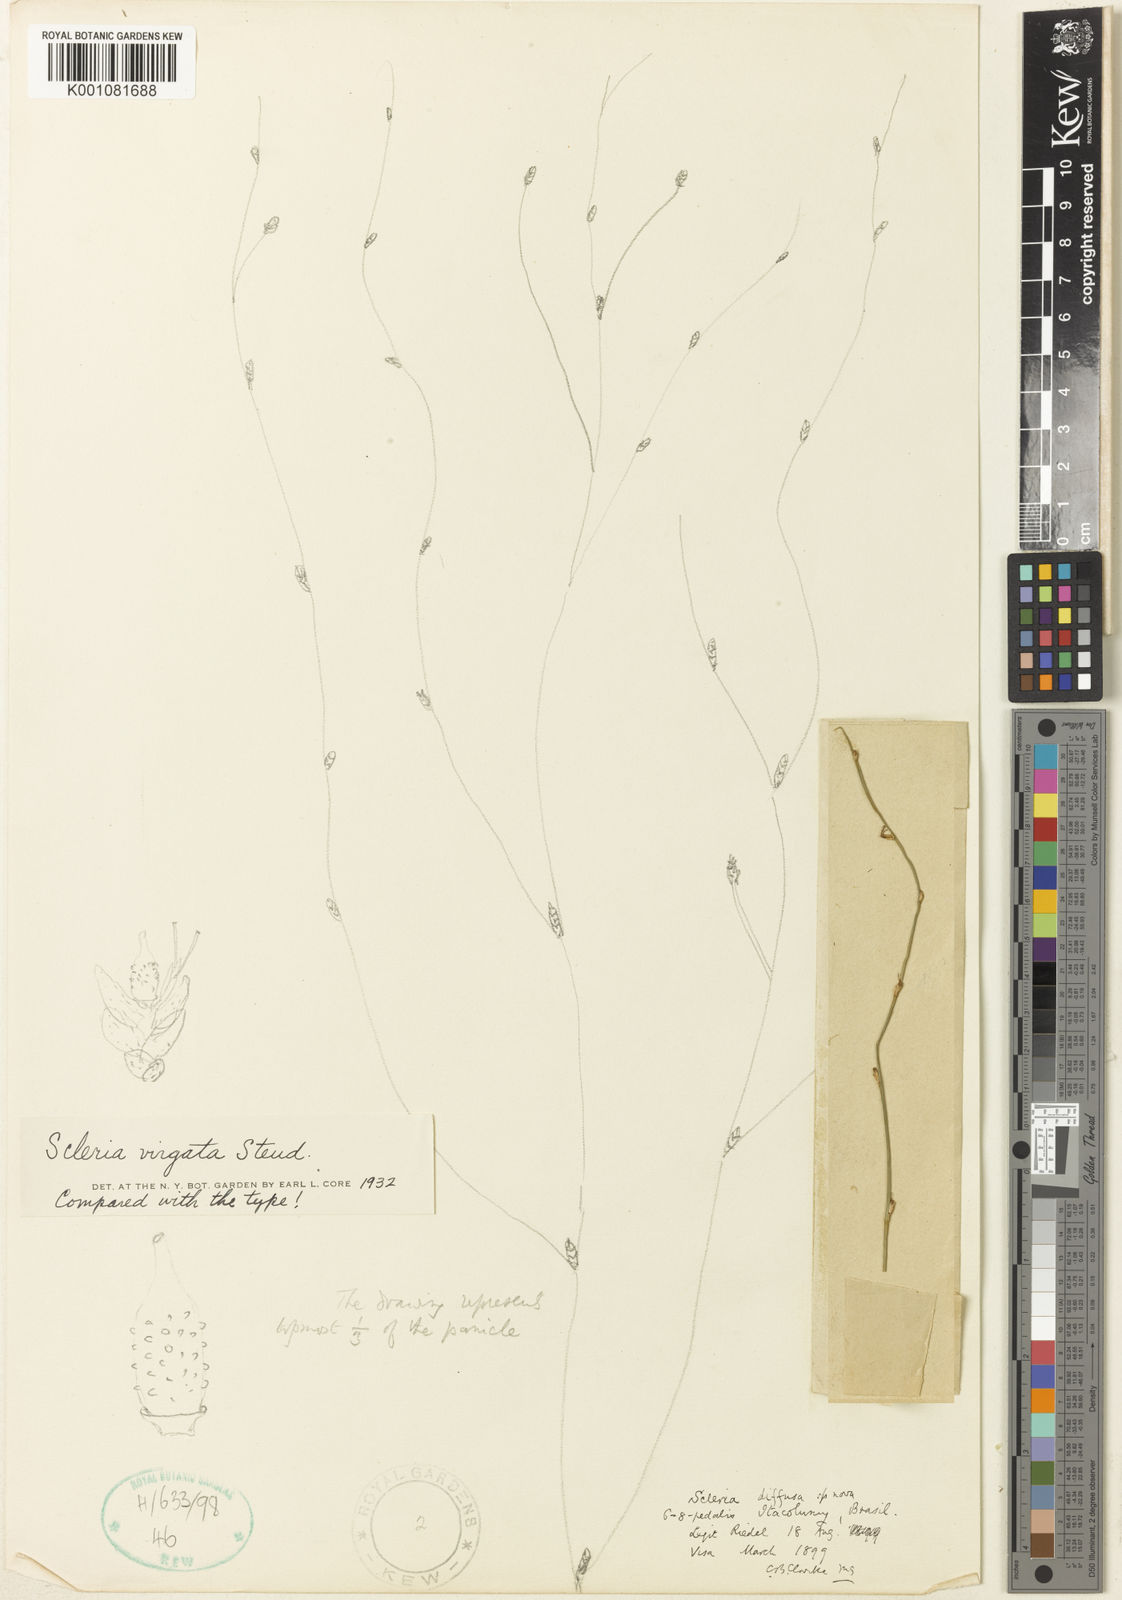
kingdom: Plantae
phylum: Tracheophyta
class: Liliopsida
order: Poales
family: Cyperaceae
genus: Scleria
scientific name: Scleria virgata
